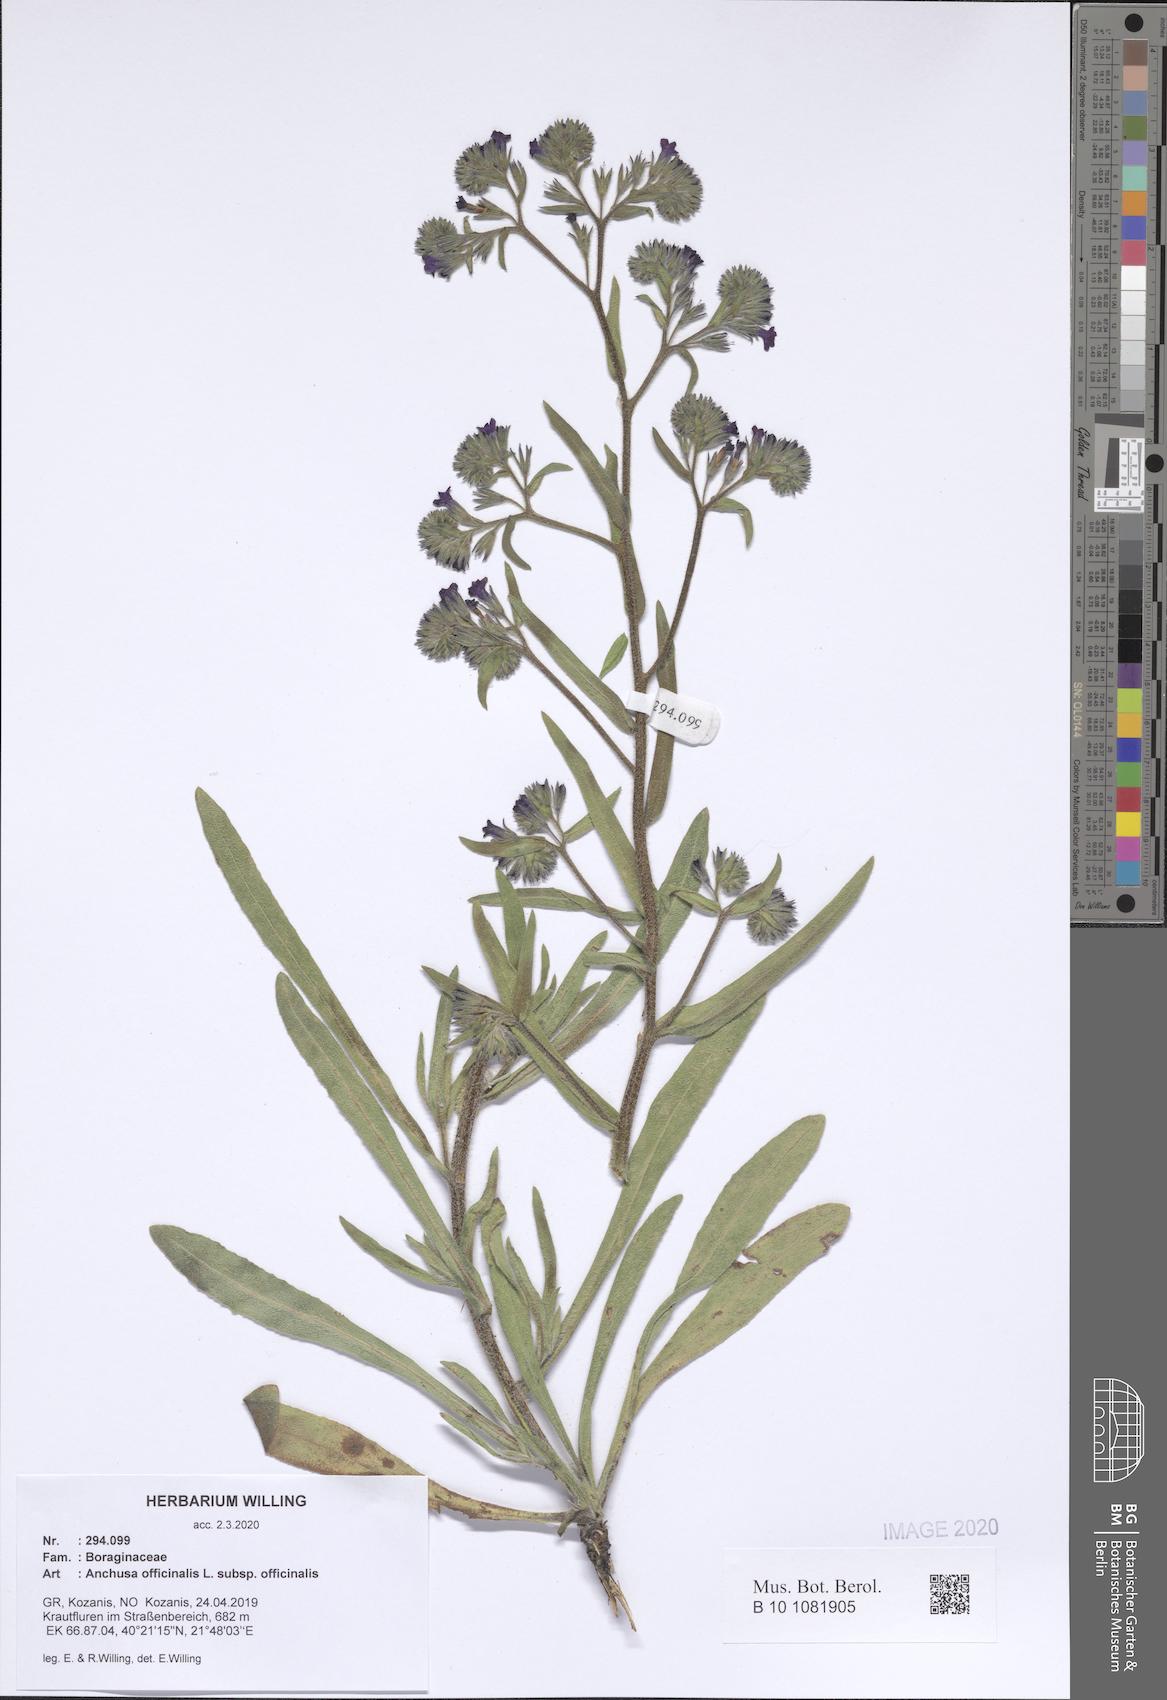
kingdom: Plantae
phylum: Tracheophyta
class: Magnoliopsida
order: Boraginales
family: Boraginaceae
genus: Anchusa
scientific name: Anchusa officinalis
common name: Alkanet
